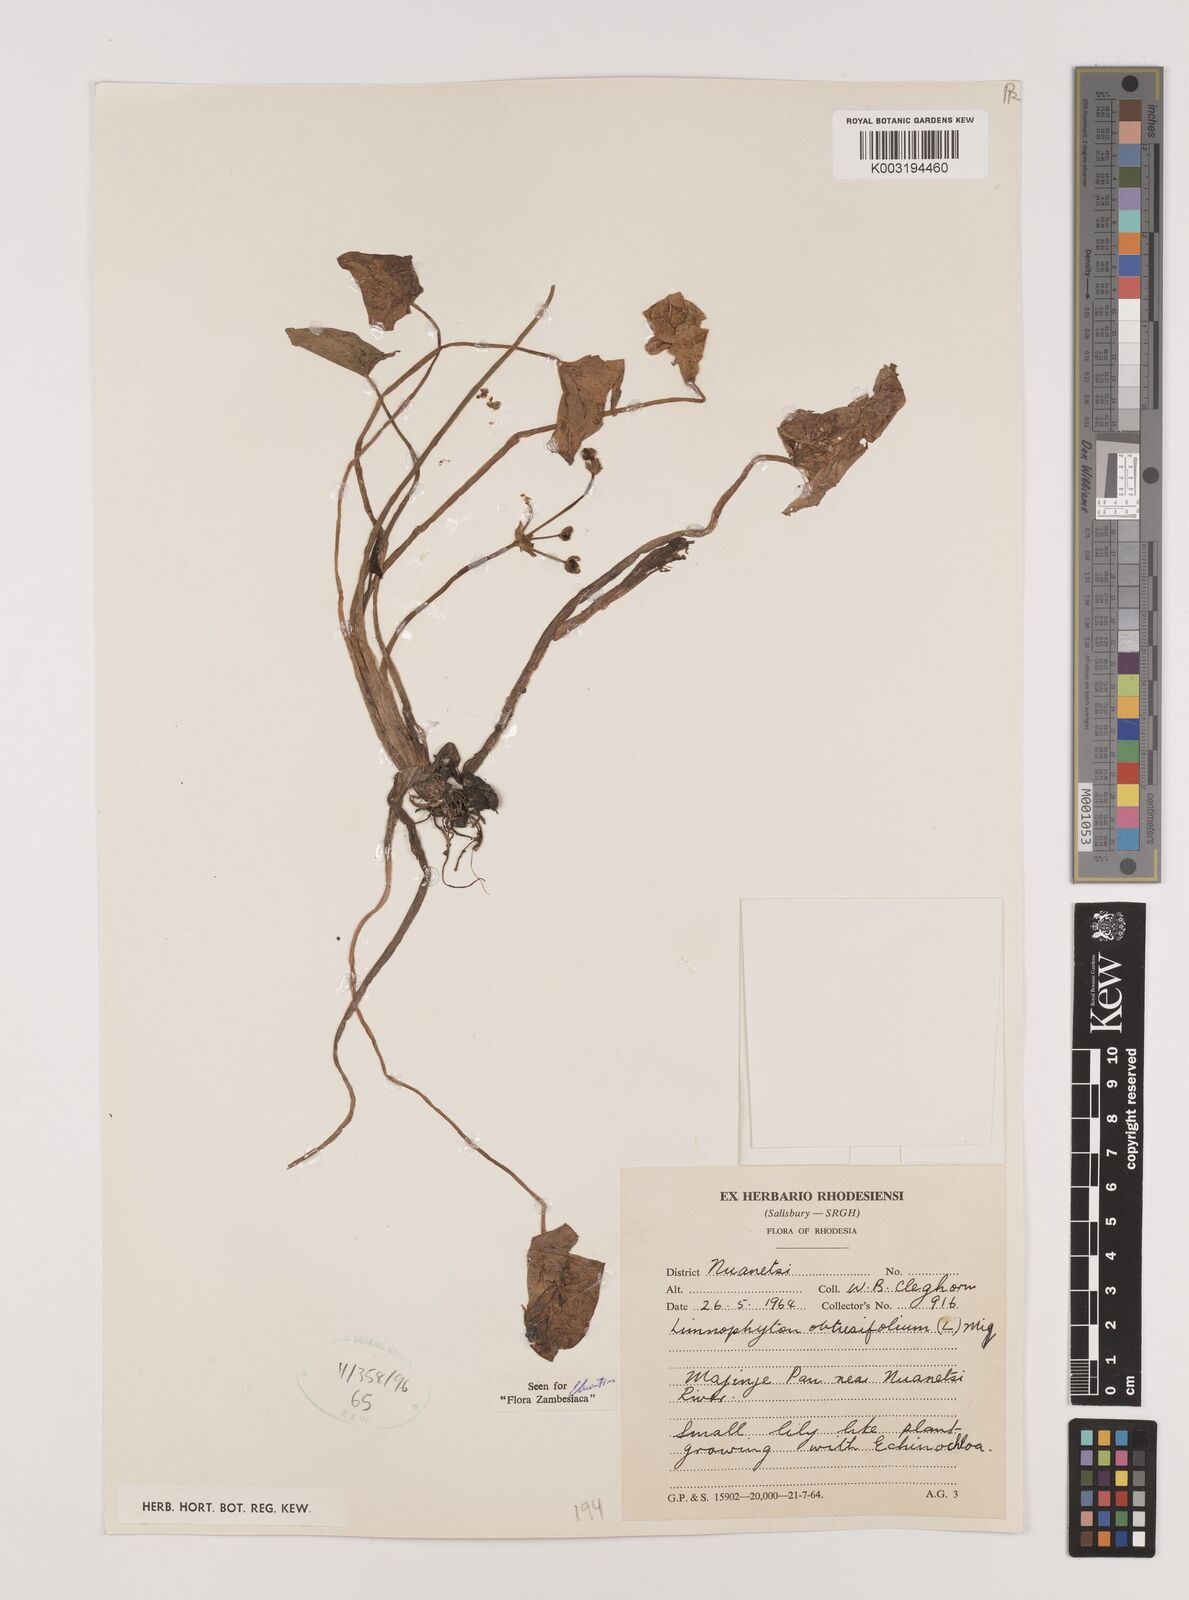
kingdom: Plantae
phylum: Tracheophyta
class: Liliopsida
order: Alismatales
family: Alismataceae
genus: Limnophyton
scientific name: Limnophyton obtusifolium
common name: Arrow head
